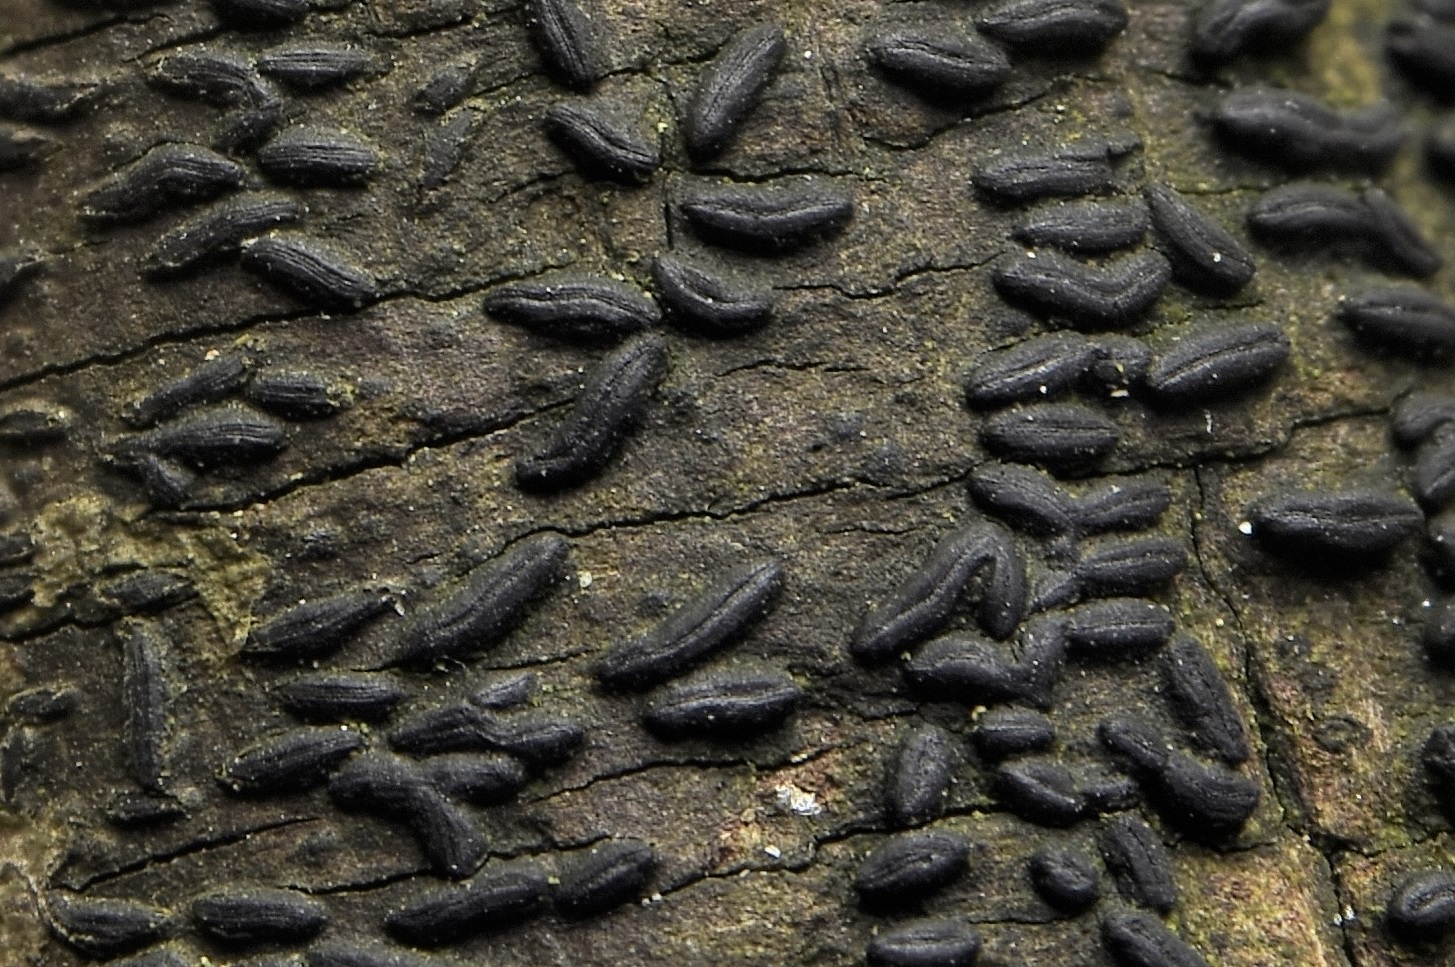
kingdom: Fungi
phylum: Ascomycota
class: Dothideomycetes
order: Hysteriales
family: Hysteriaceae
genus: Hysterium
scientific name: Hysterium acuminatum
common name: almindelig kulmund
